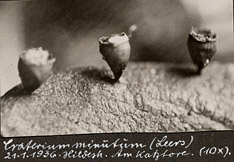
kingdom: Protozoa
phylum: Mycetozoa
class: Myxomycetes
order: Physarales
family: Physaraceae
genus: Craterium
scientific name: Craterium minutum
